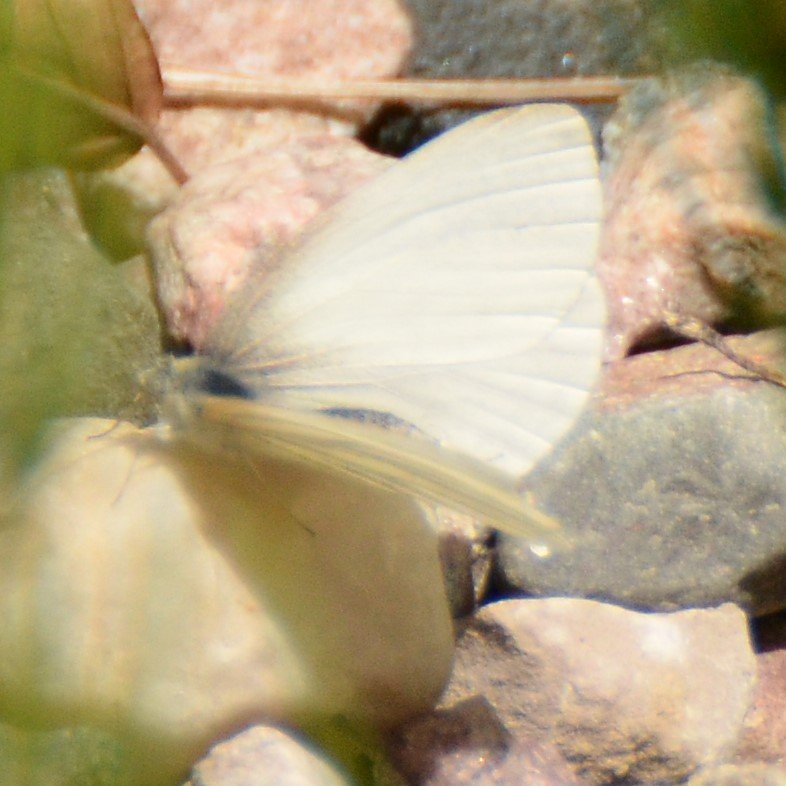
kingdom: Animalia
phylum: Arthropoda
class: Insecta
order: Lepidoptera
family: Pieridae
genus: Pieris
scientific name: Pieris oleracea
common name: Mustard White
